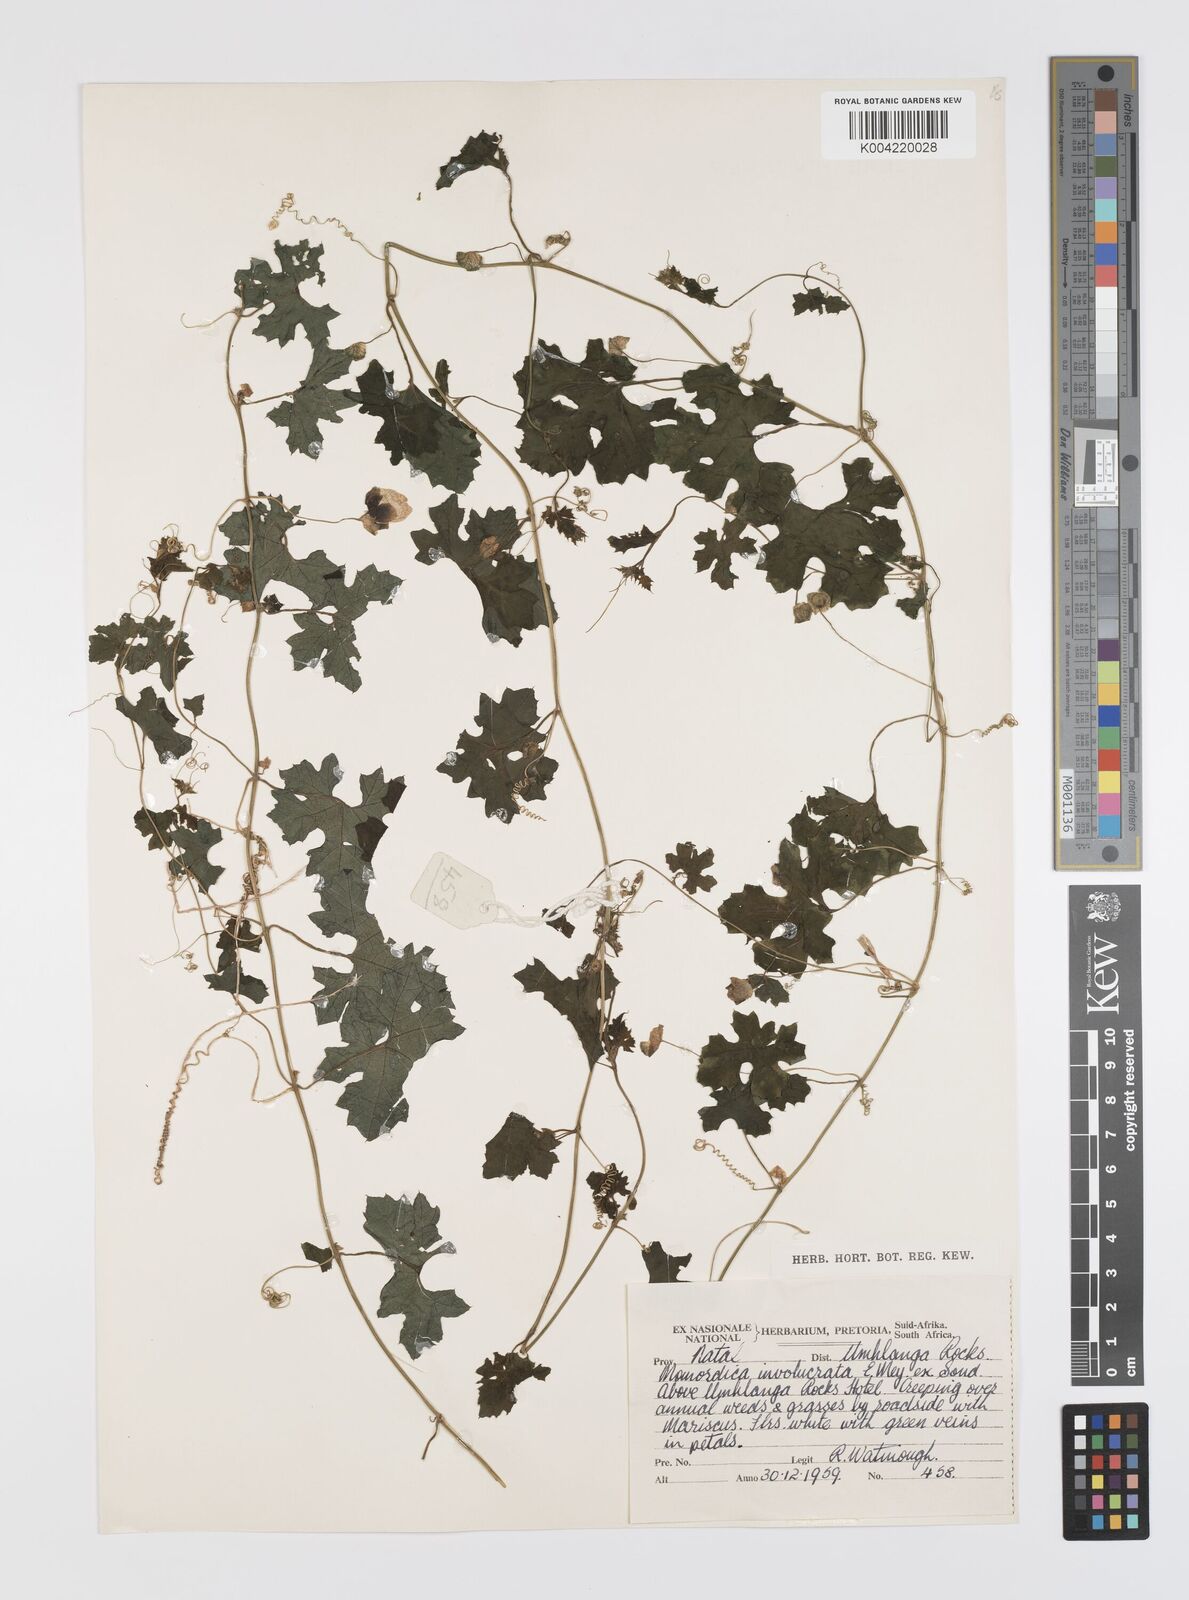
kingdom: Plantae
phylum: Tracheophyta
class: Magnoliopsida
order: Cucurbitales
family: Cucurbitaceae
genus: Momordica
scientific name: Momordica balsamina
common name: Southern balsampear
